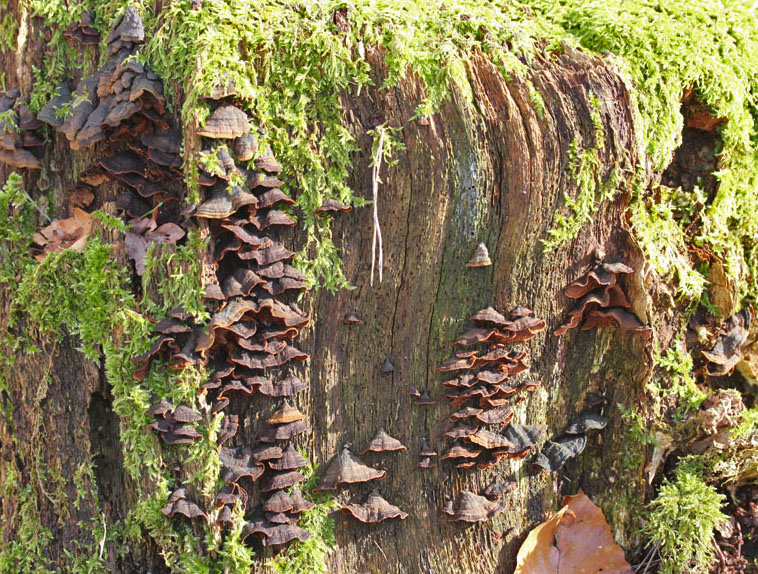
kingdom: Fungi
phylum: Basidiomycota
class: Agaricomycetes
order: Hymenochaetales
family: Hymenochaetaceae
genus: Hymenochaete
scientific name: Hymenochaete rubiginosa
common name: stiv ruslædersvamp
